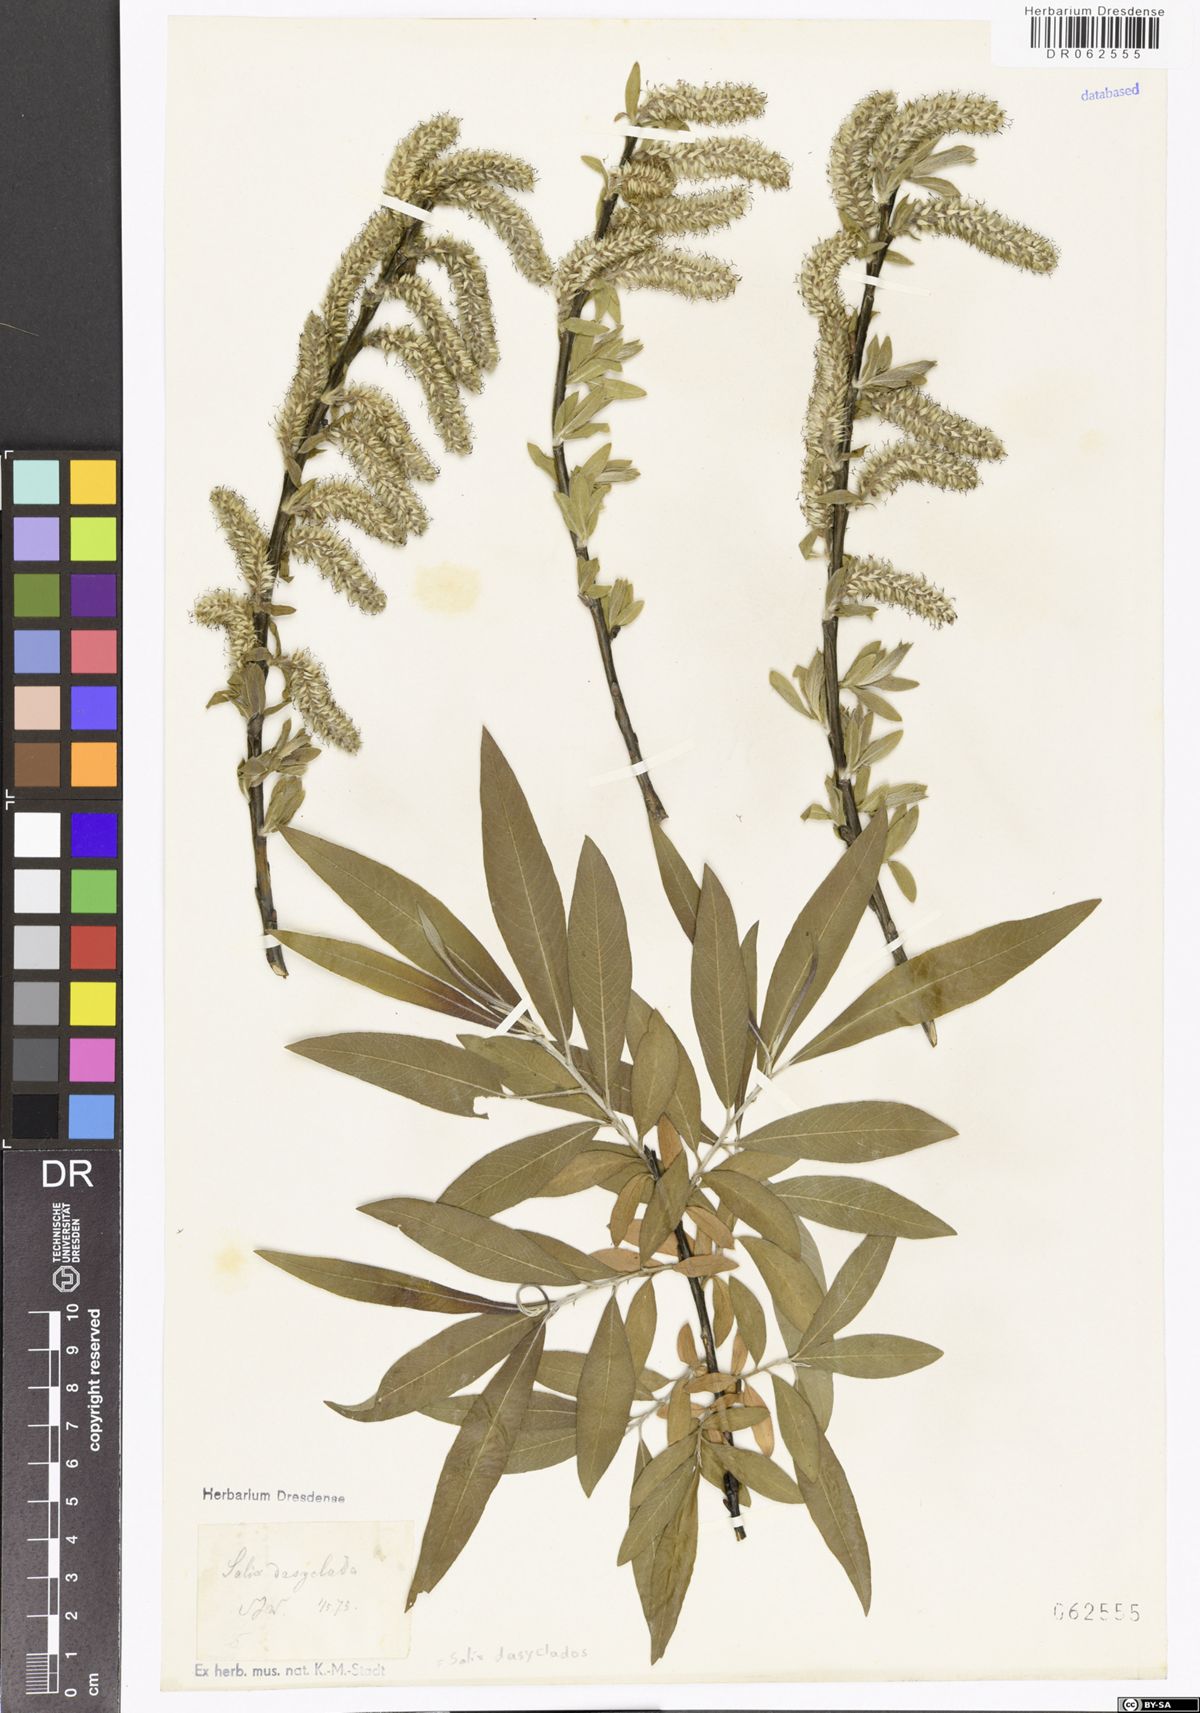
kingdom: Plantae
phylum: Tracheophyta
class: Magnoliopsida
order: Malpighiales
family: Salicaceae
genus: Salix
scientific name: Salix gmelinii
